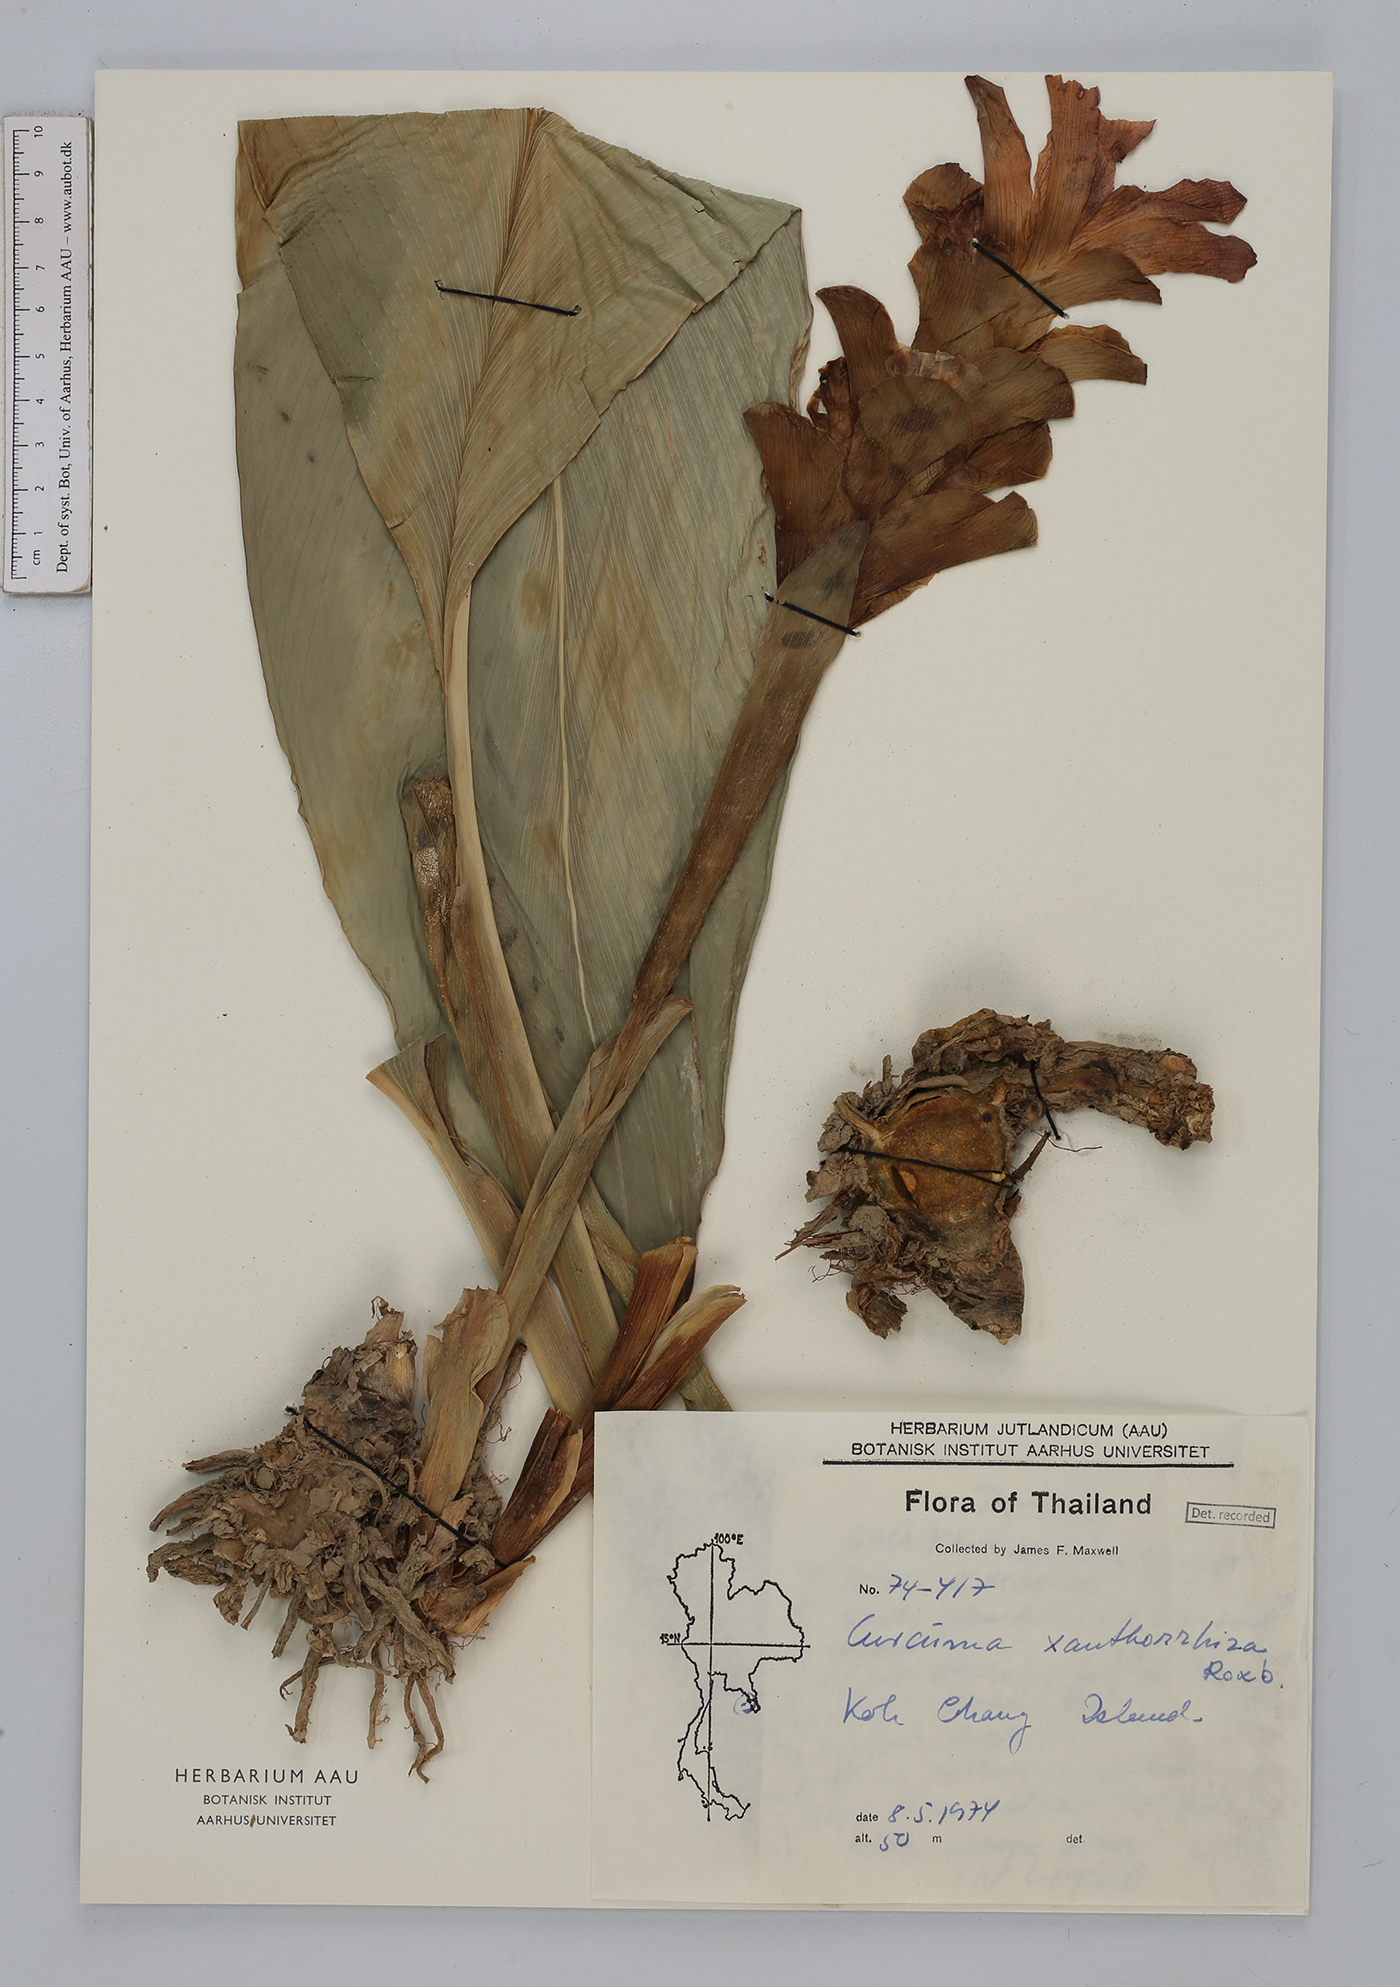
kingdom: Plantae
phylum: Tracheophyta
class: Liliopsida
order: Zingiberales
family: Zingiberaceae
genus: Curcuma
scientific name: Curcuma zanthorrhiza
